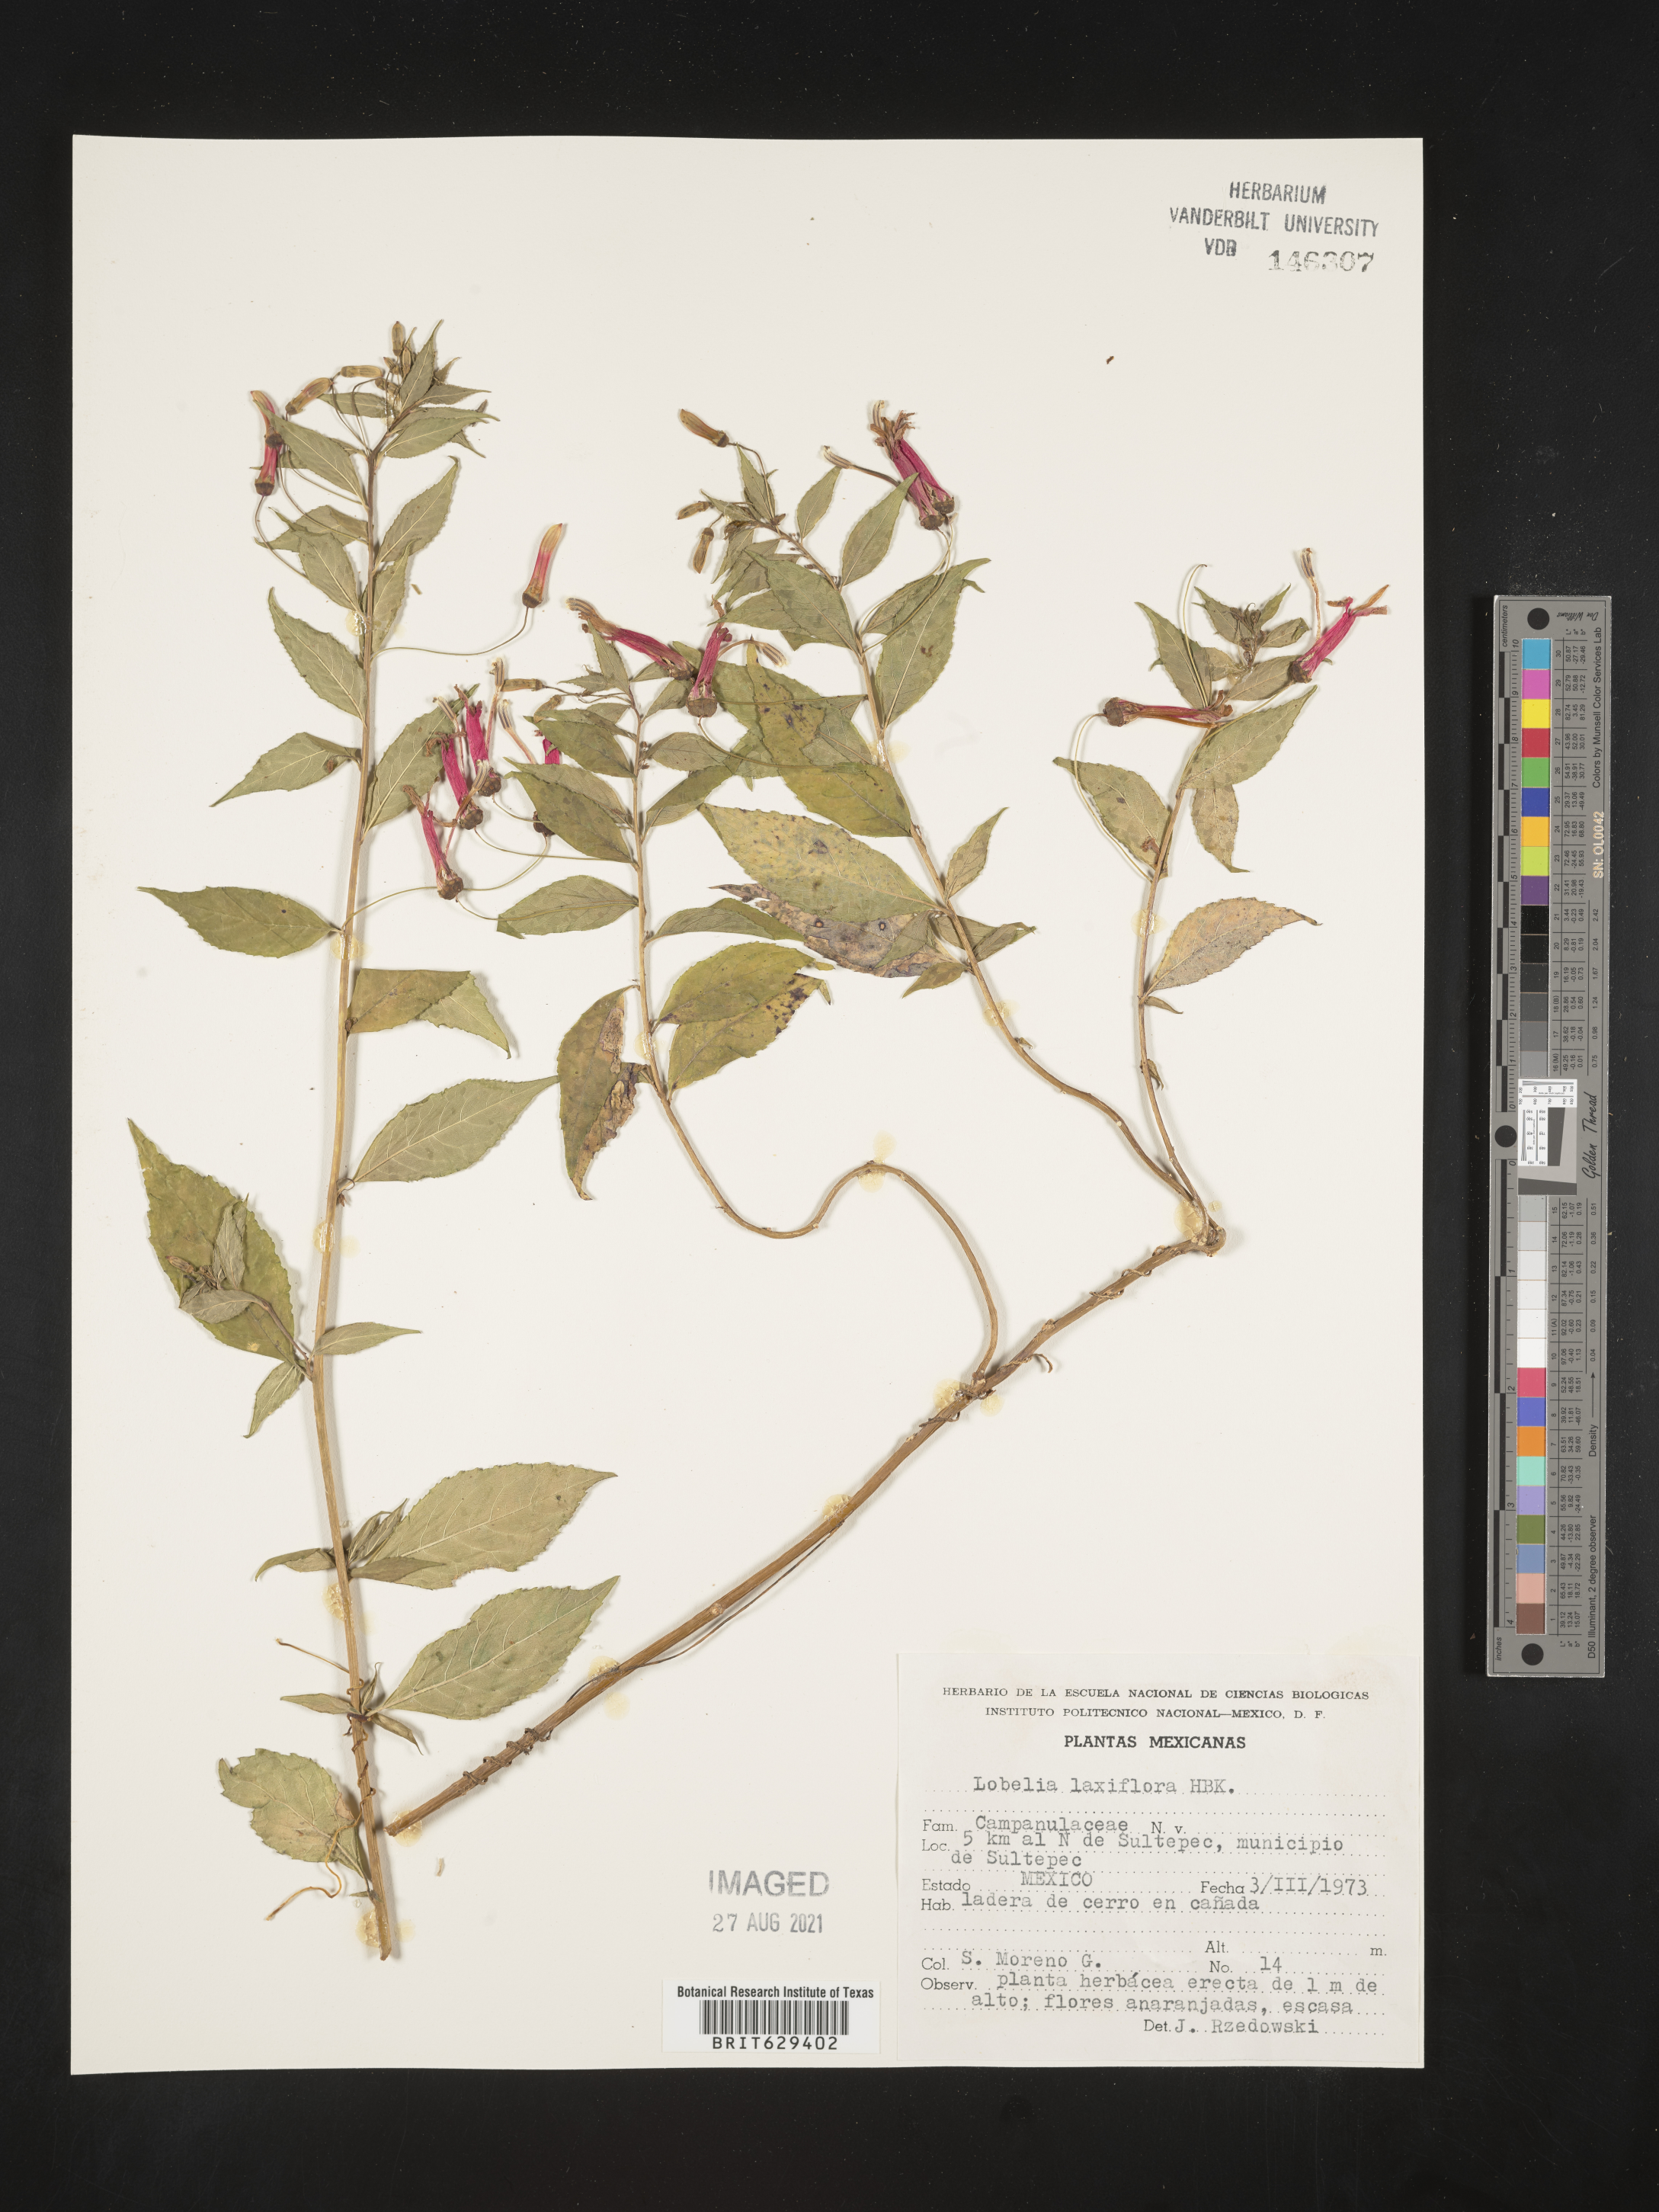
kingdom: Plantae
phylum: Tracheophyta
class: Magnoliopsida
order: Asterales
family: Campanulaceae
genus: Lobelia
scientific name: Lobelia
